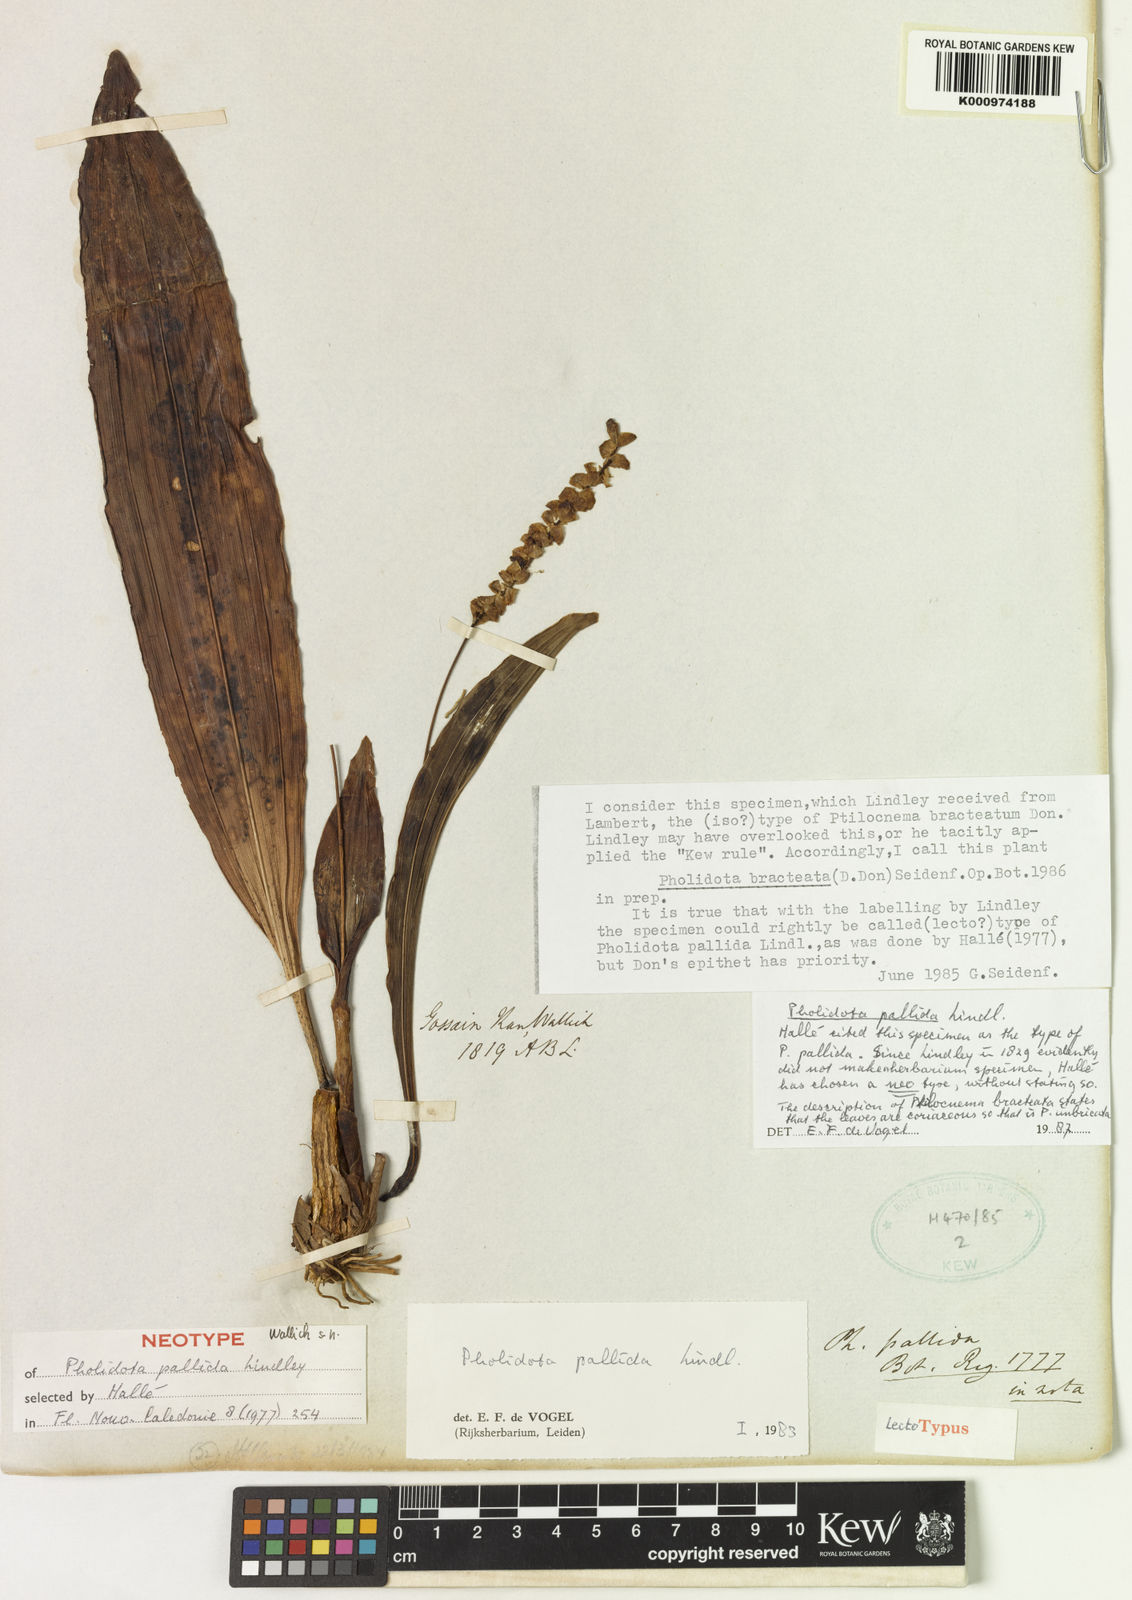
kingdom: Plantae
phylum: Tracheophyta
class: Liliopsida
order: Asparagales
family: Orchidaceae
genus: Coelogyne
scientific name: Coelogyne pallida
